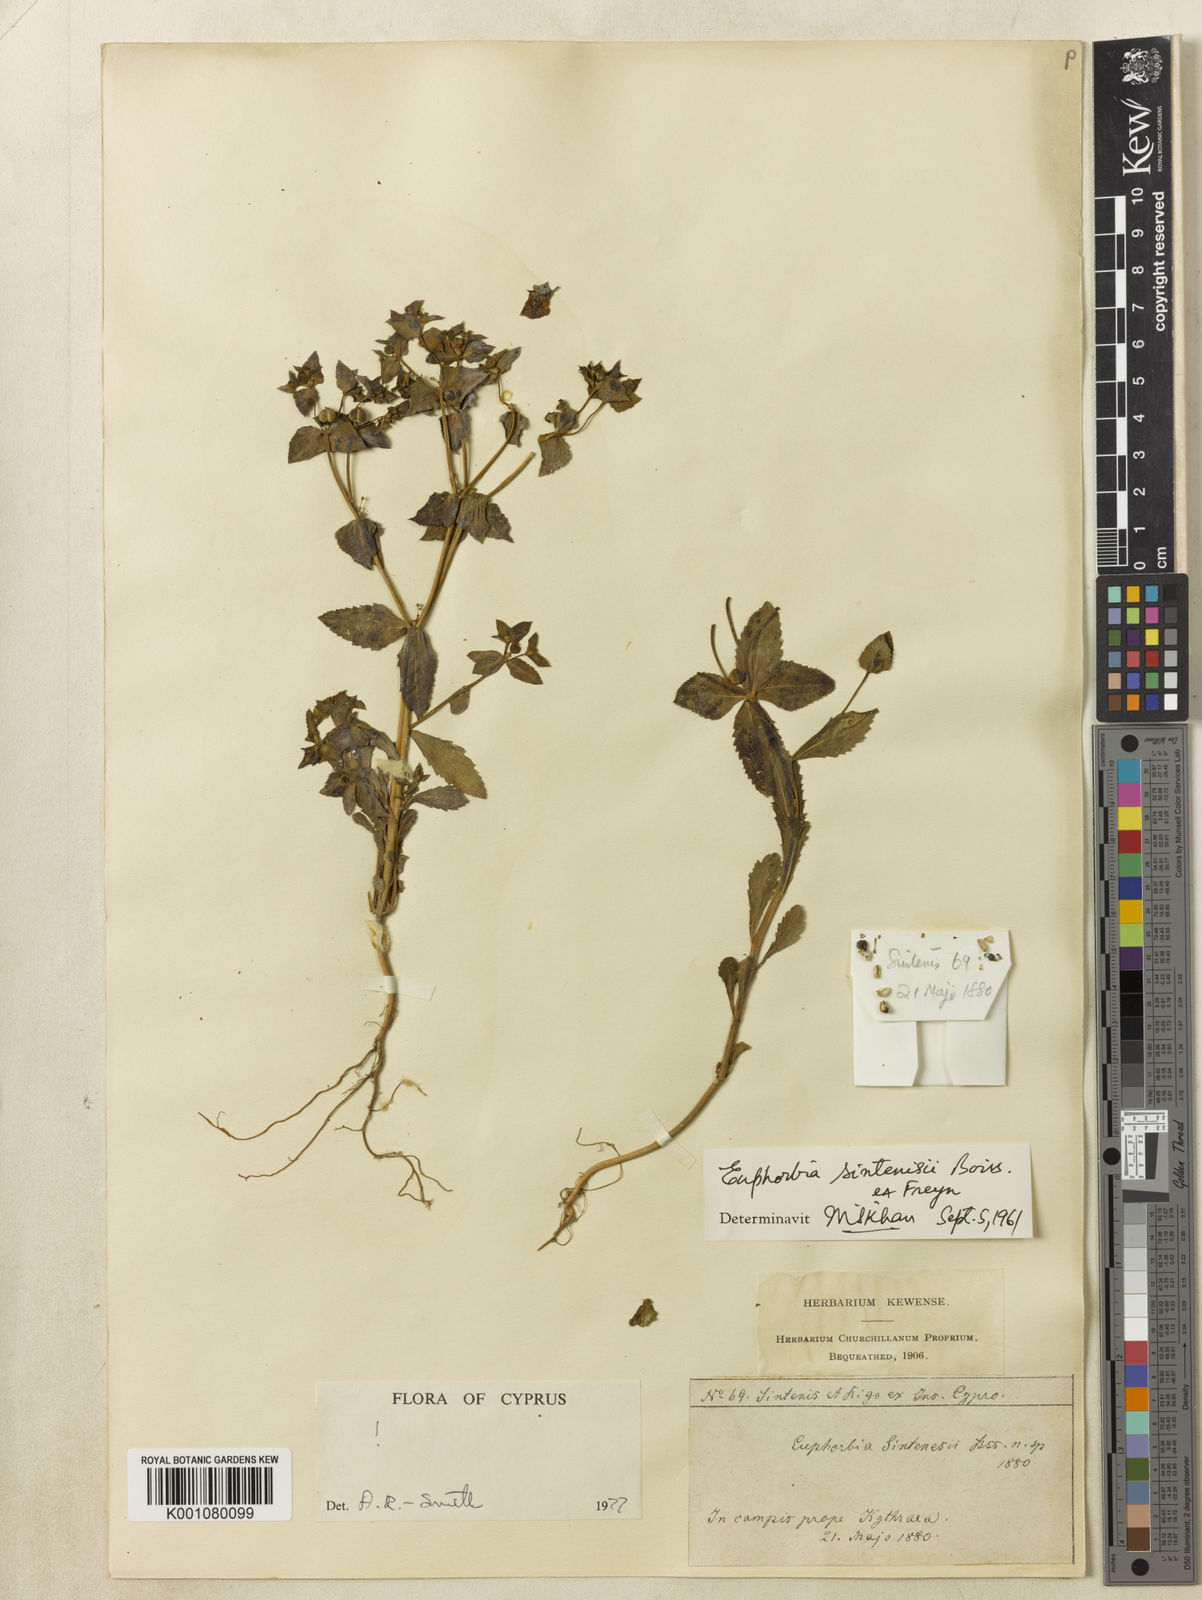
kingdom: Plantae
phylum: Tracheophyta
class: Magnoliopsida
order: Malpighiales
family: Euphorbiaceae
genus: Euphorbia
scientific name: Euphorbia sintenisii
